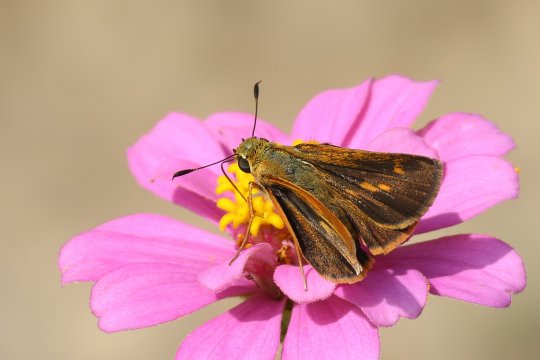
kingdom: Animalia
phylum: Arthropoda
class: Insecta
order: Lepidoptera
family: Hesperiidae
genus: Wallengrenia
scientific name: Wallengrenia otho
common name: Southern Broken-Dash
